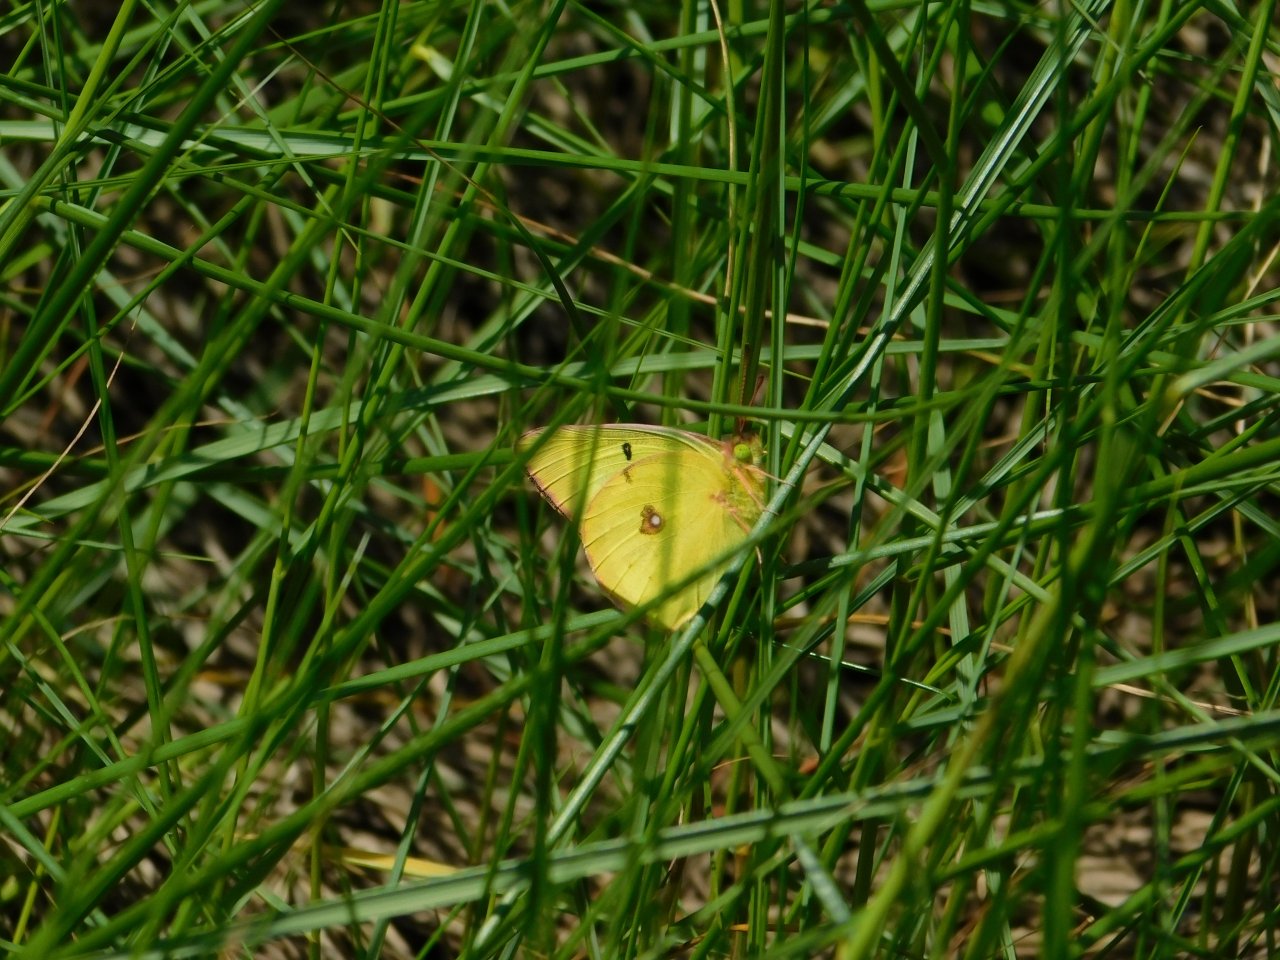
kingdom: Animalia
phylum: Arthropoda
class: Insecta
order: Lepidoptera
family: Pieridae
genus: Colias
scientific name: Colias philodice
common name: Clouded Sulphur
